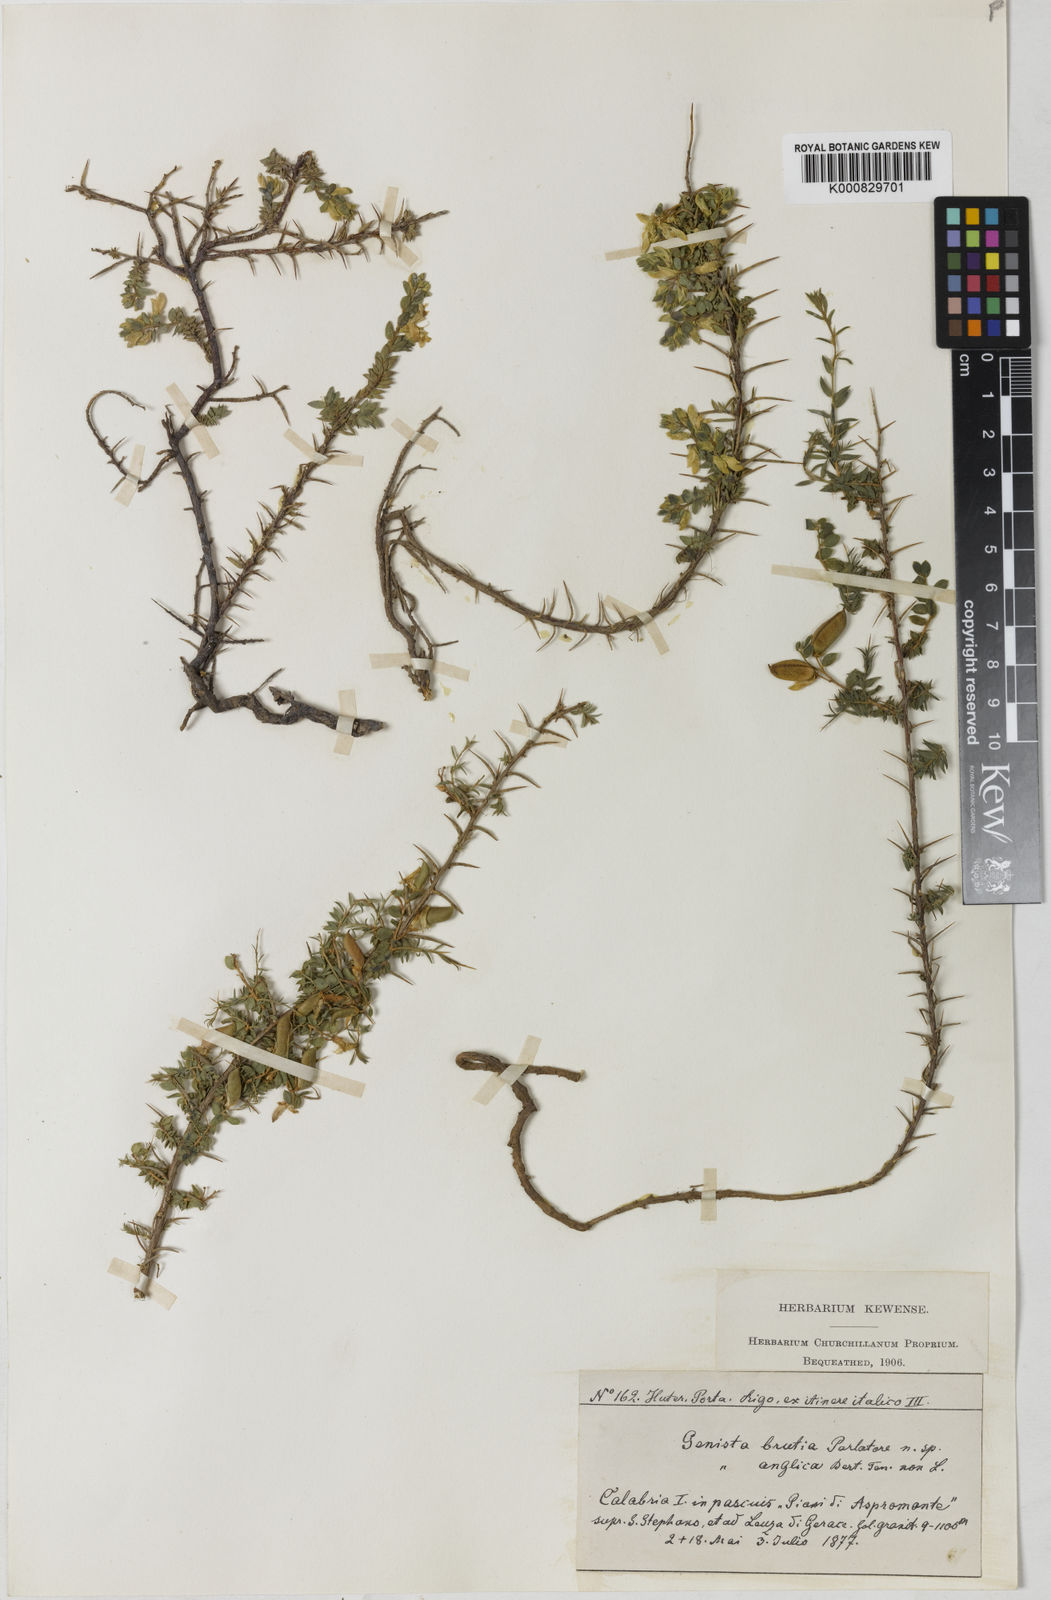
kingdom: Plantae
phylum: Tracheophyta
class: Magnoliopsida
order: Fabales
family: Fabaceae
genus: Genista
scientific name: Genista anglica
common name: Petty whin
